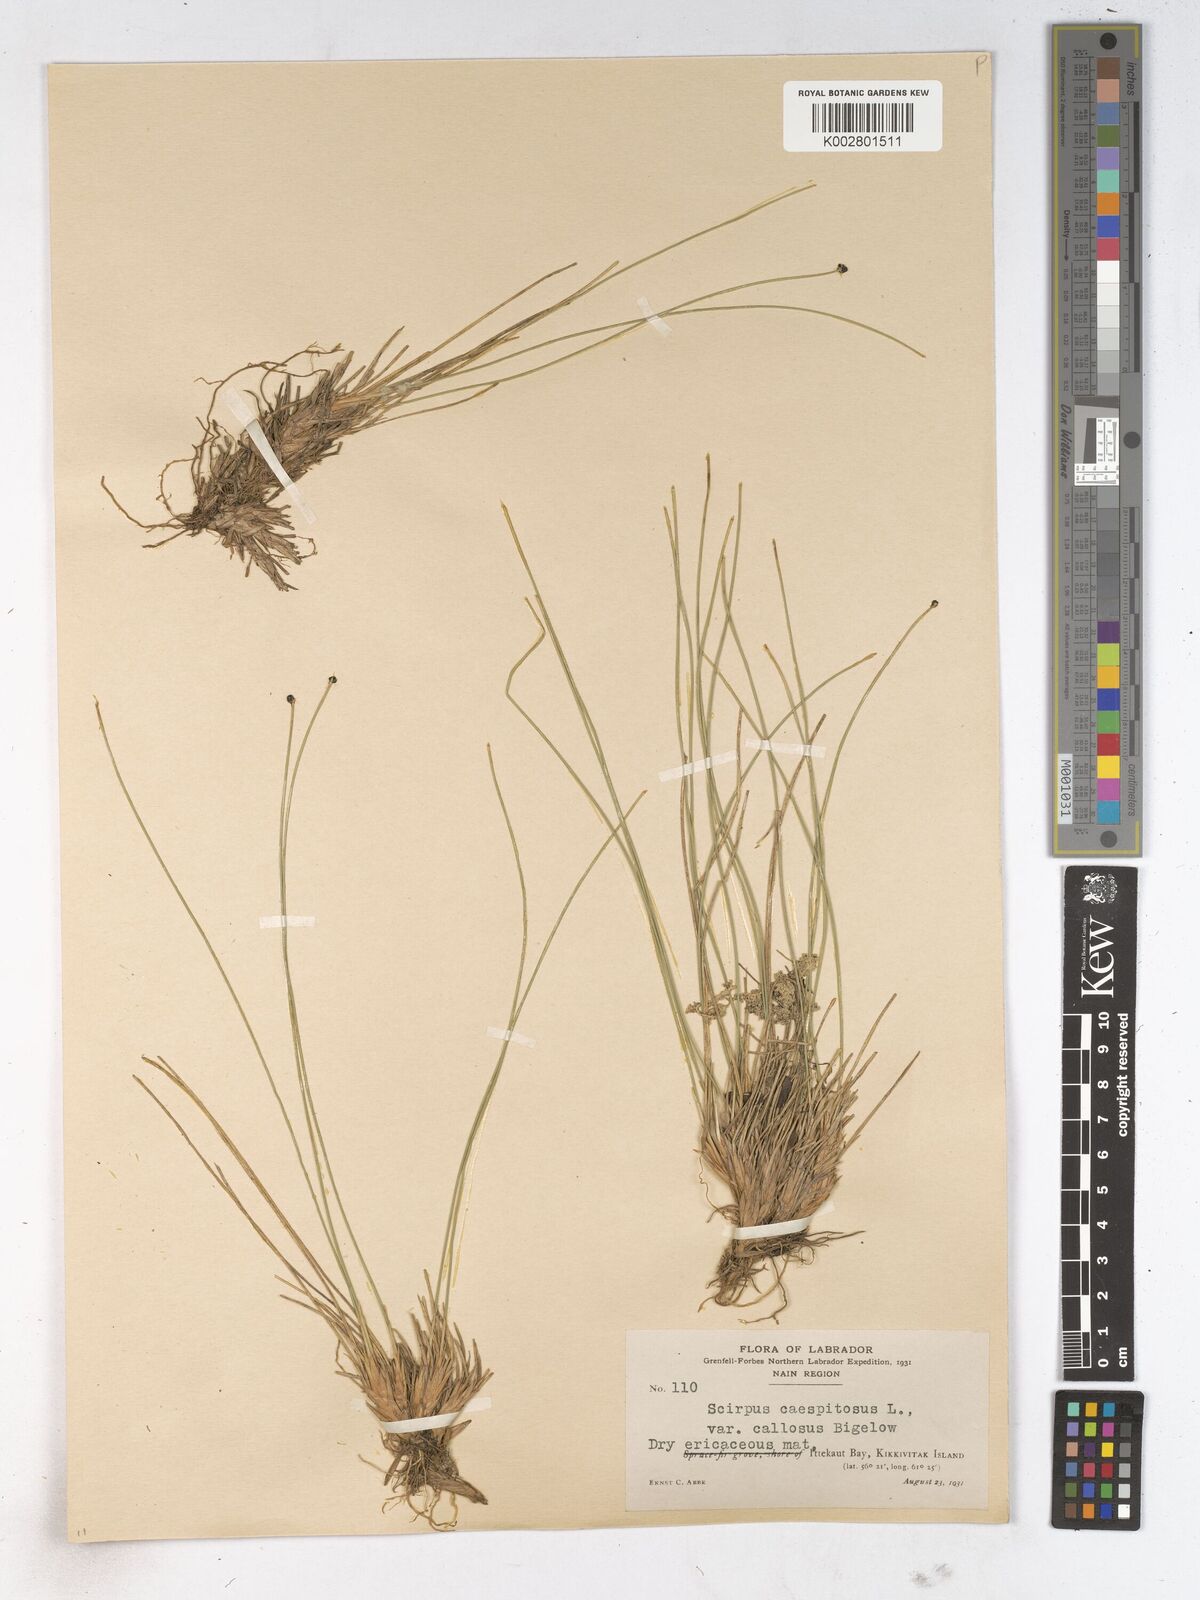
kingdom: Plantae
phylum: Tracheophyta
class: Liliopsida
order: Poales
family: Cyperaceae
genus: Trichophorum
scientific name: Trichophorum cespitosum
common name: Cespitose bulrush
